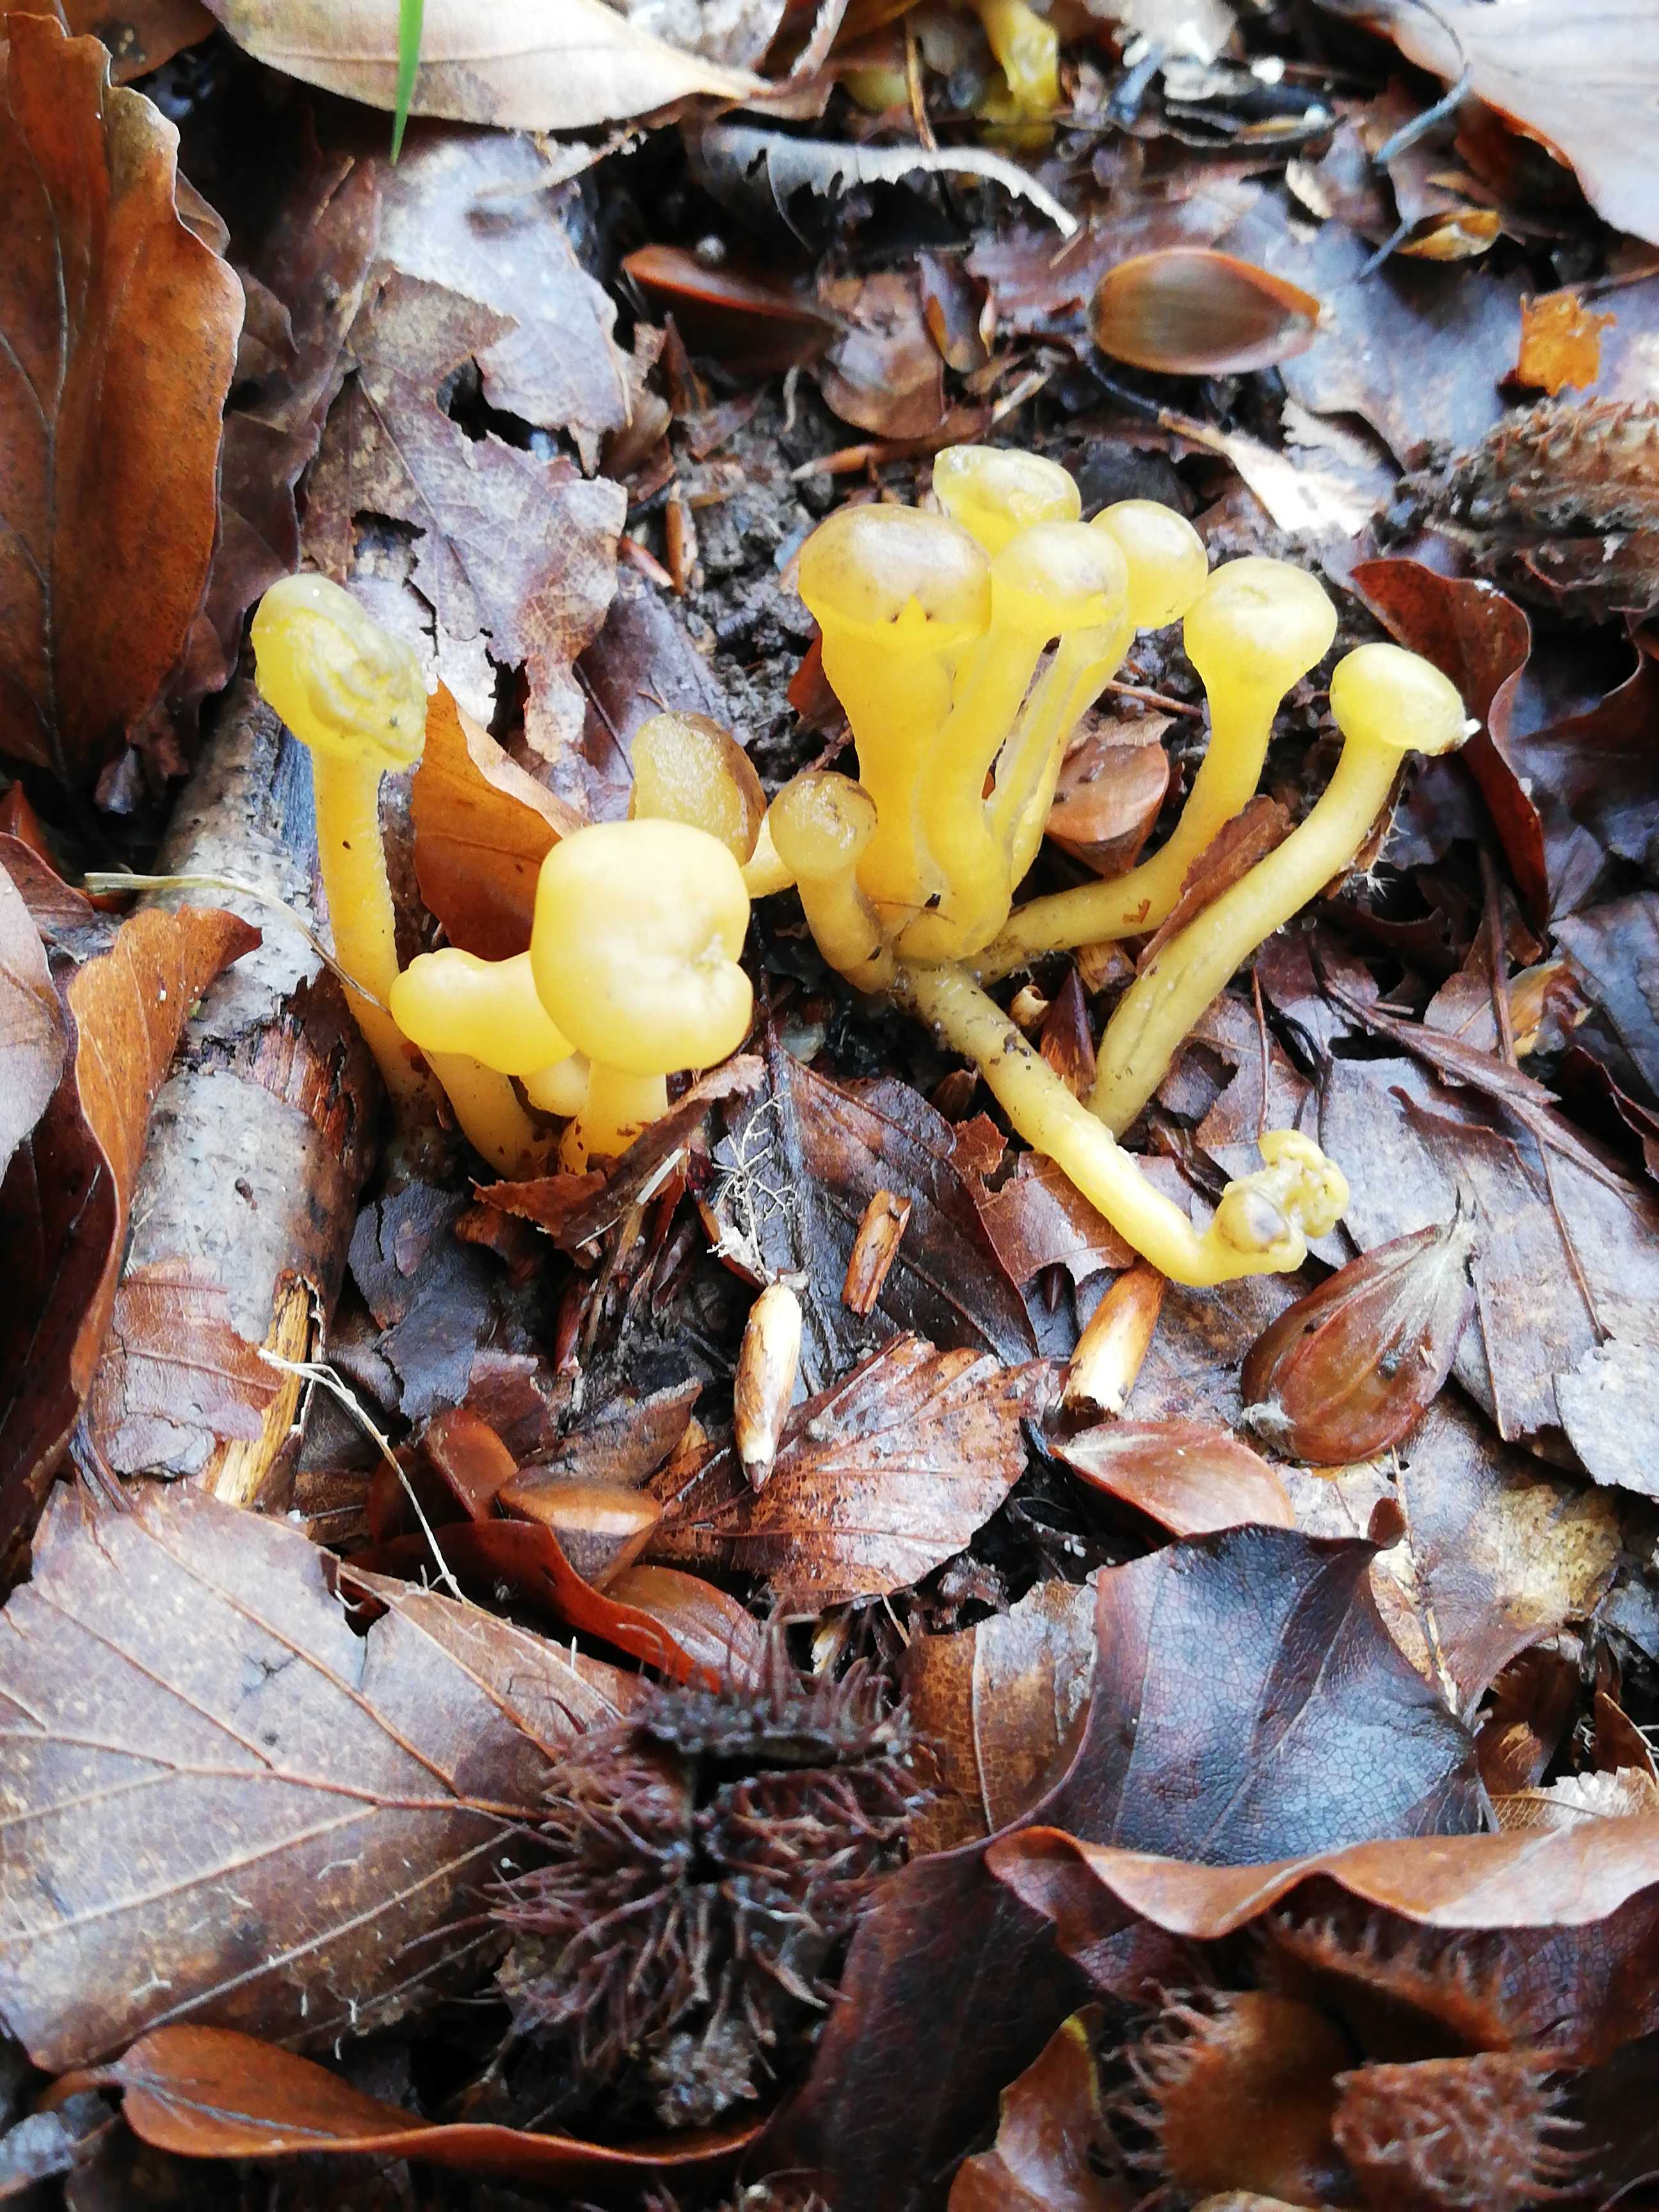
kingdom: Fungi
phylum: Ascomycota
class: Leotiomycetes
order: Leotiales
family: Leotiaceae
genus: Leotia
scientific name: Leotia lubrica
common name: ravsvamp
